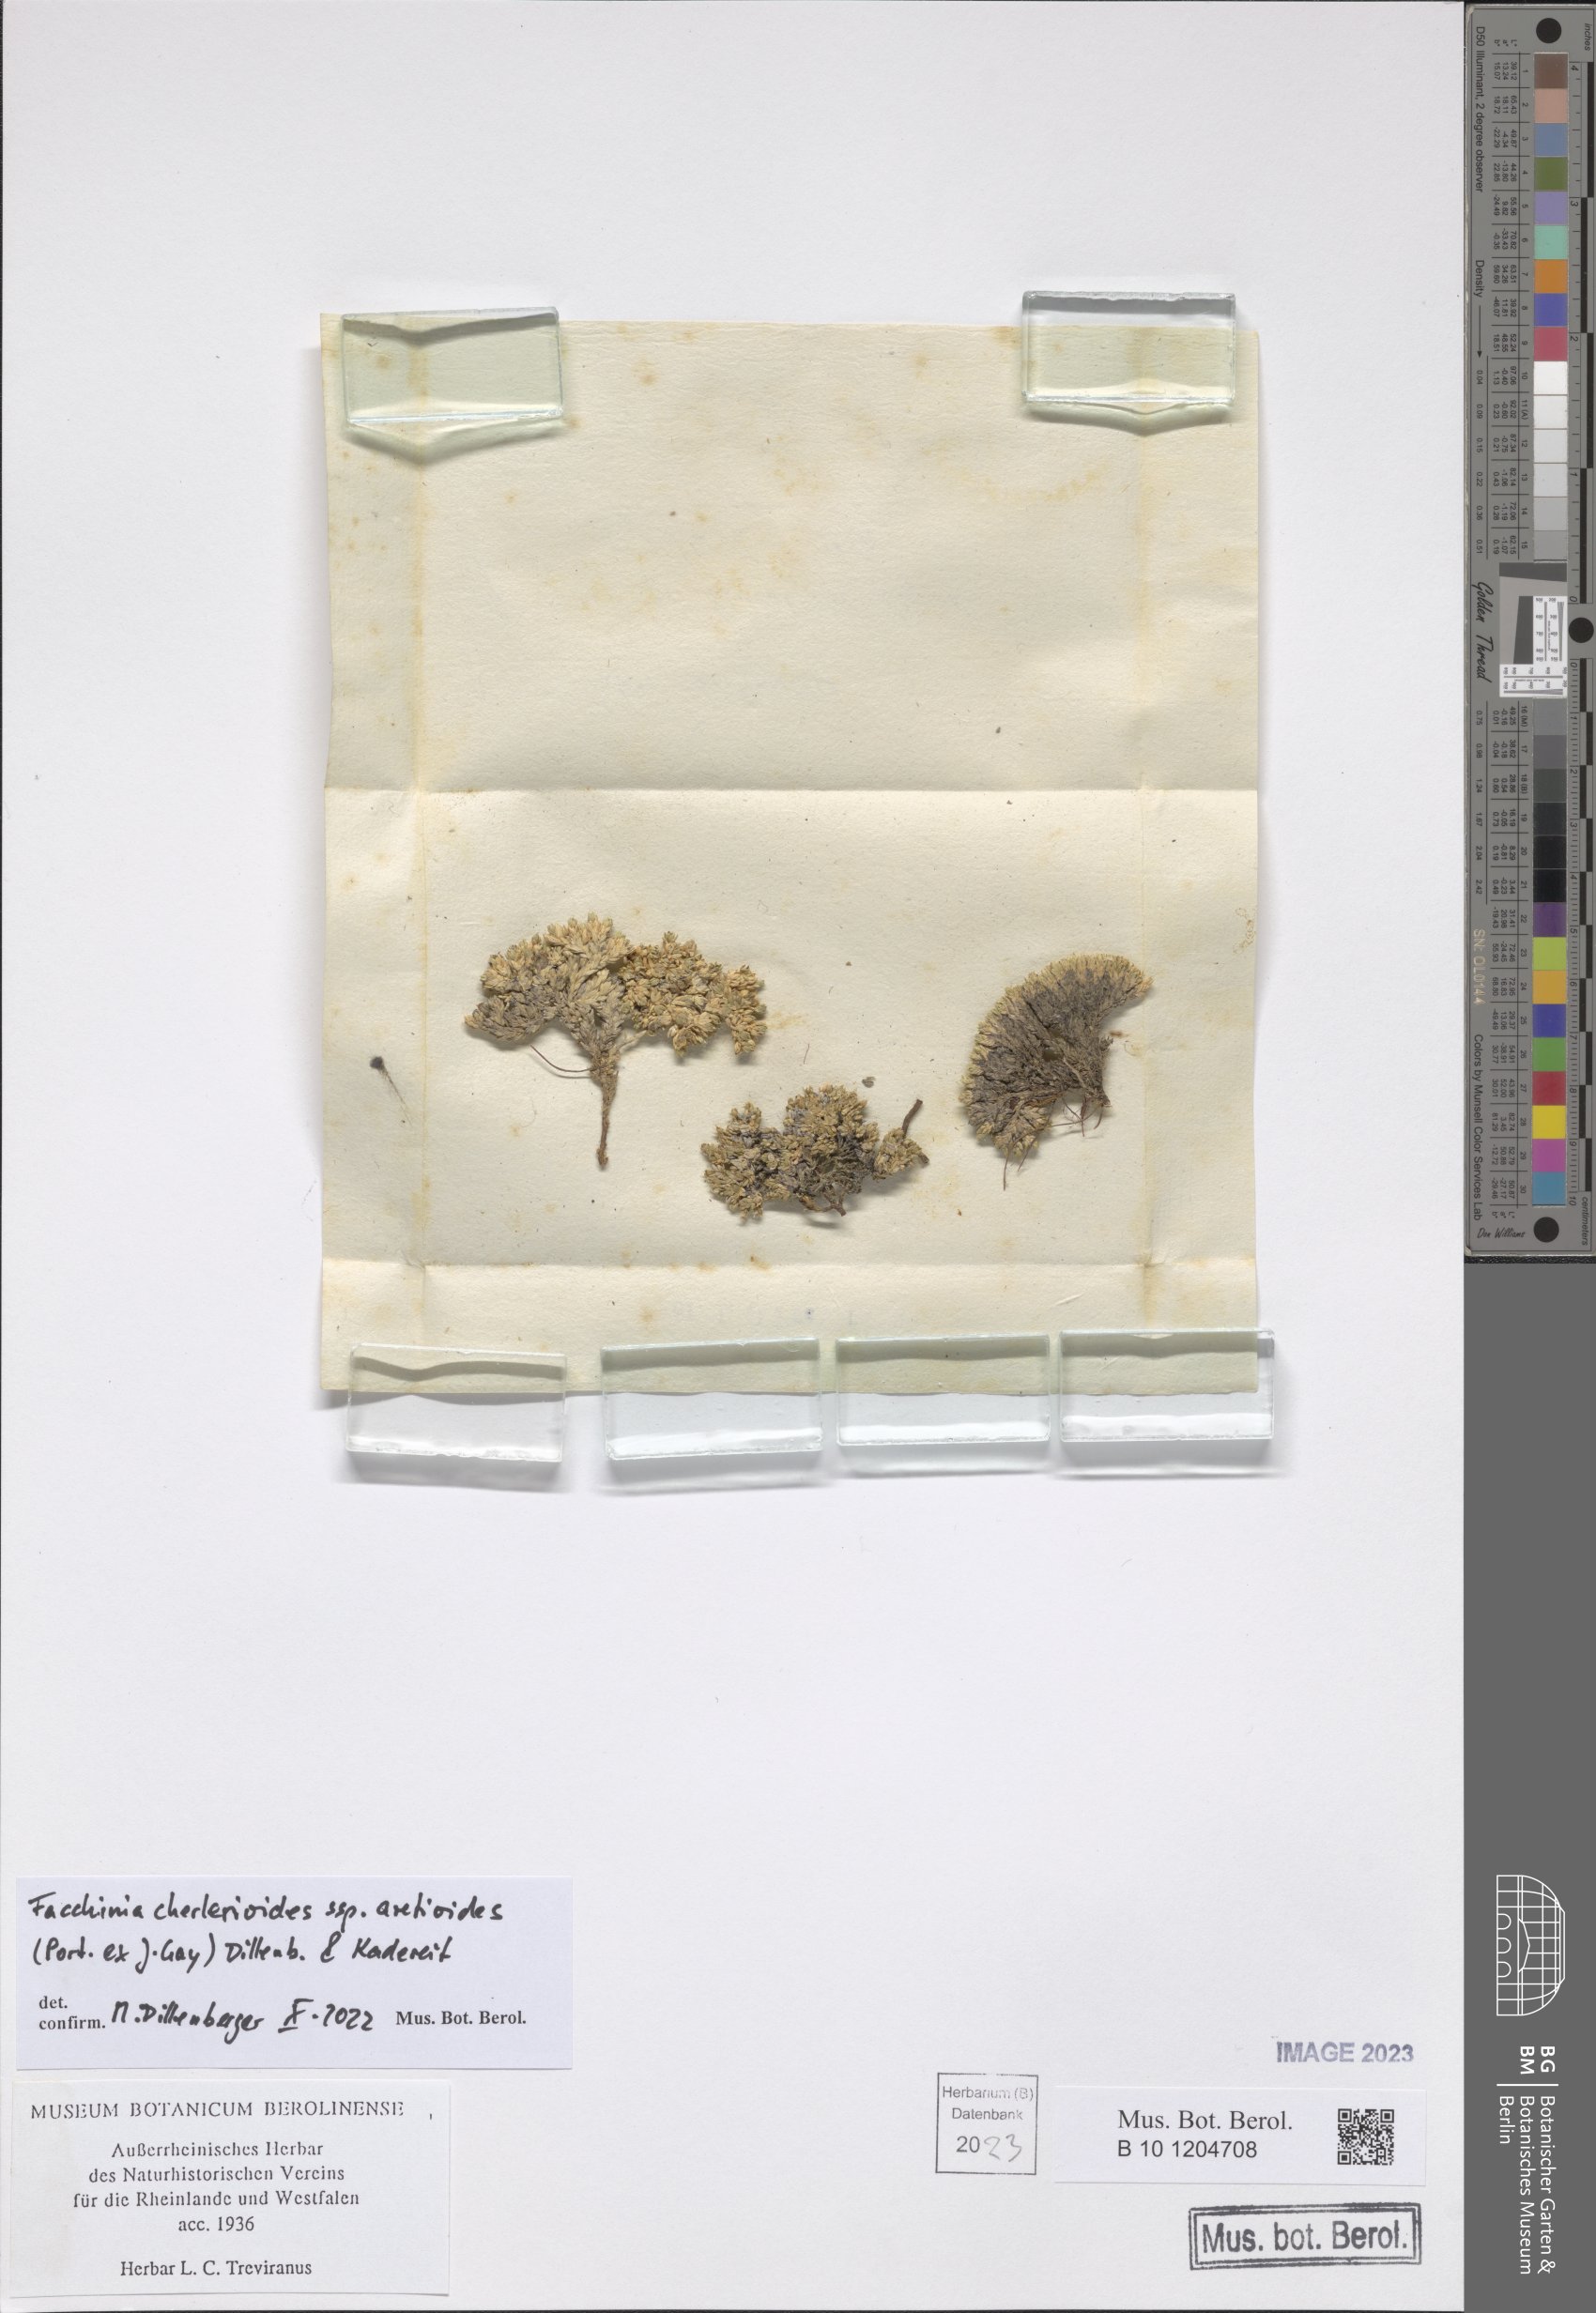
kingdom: Plantae
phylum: Tracheophyta
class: Magnoliopsida
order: Caryophyllales
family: Caryophyllaceae
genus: Facchinia
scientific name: Facchinia cherlerioides
